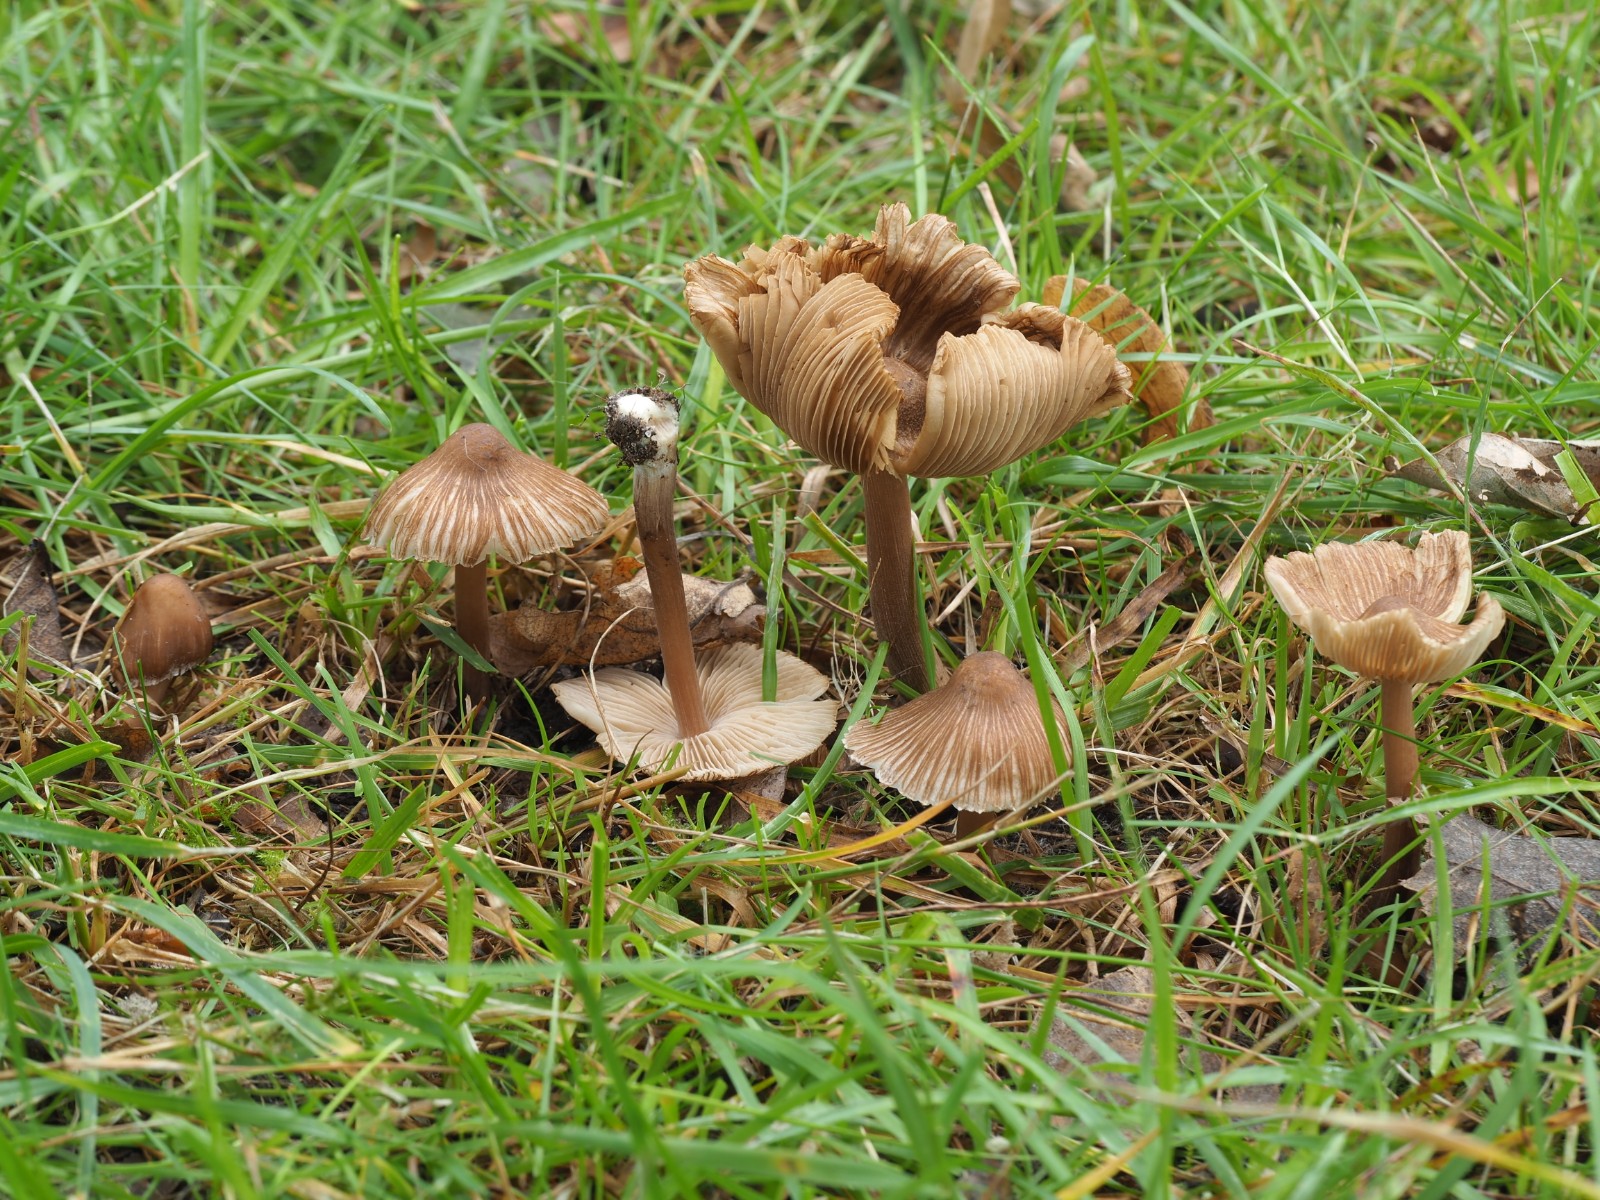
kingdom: Fungi
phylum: Basidiomycota
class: Agaricomycetes
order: Agaricales
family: Inocybaceae
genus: Inocybe
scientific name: Inocybe asterospora
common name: stjernesporet trævlhat
